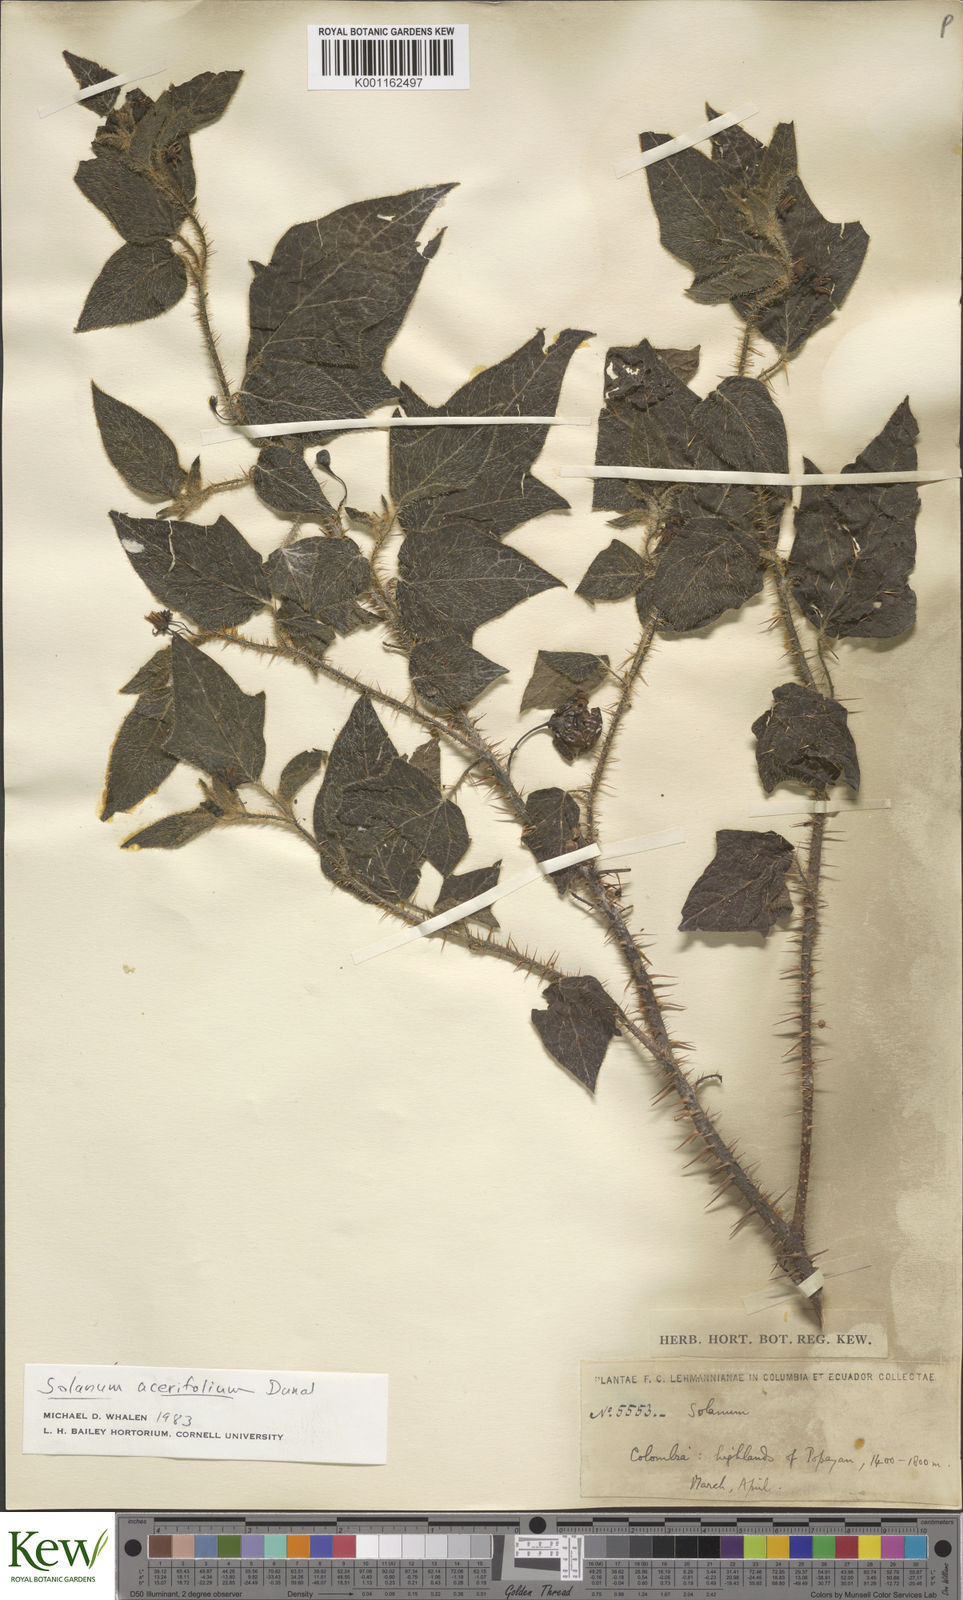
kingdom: Plantae
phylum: Tracheophyta
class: Magnoliopsida
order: Solanales
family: Solanaceae
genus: Solanum
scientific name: Solanum acerifolium
